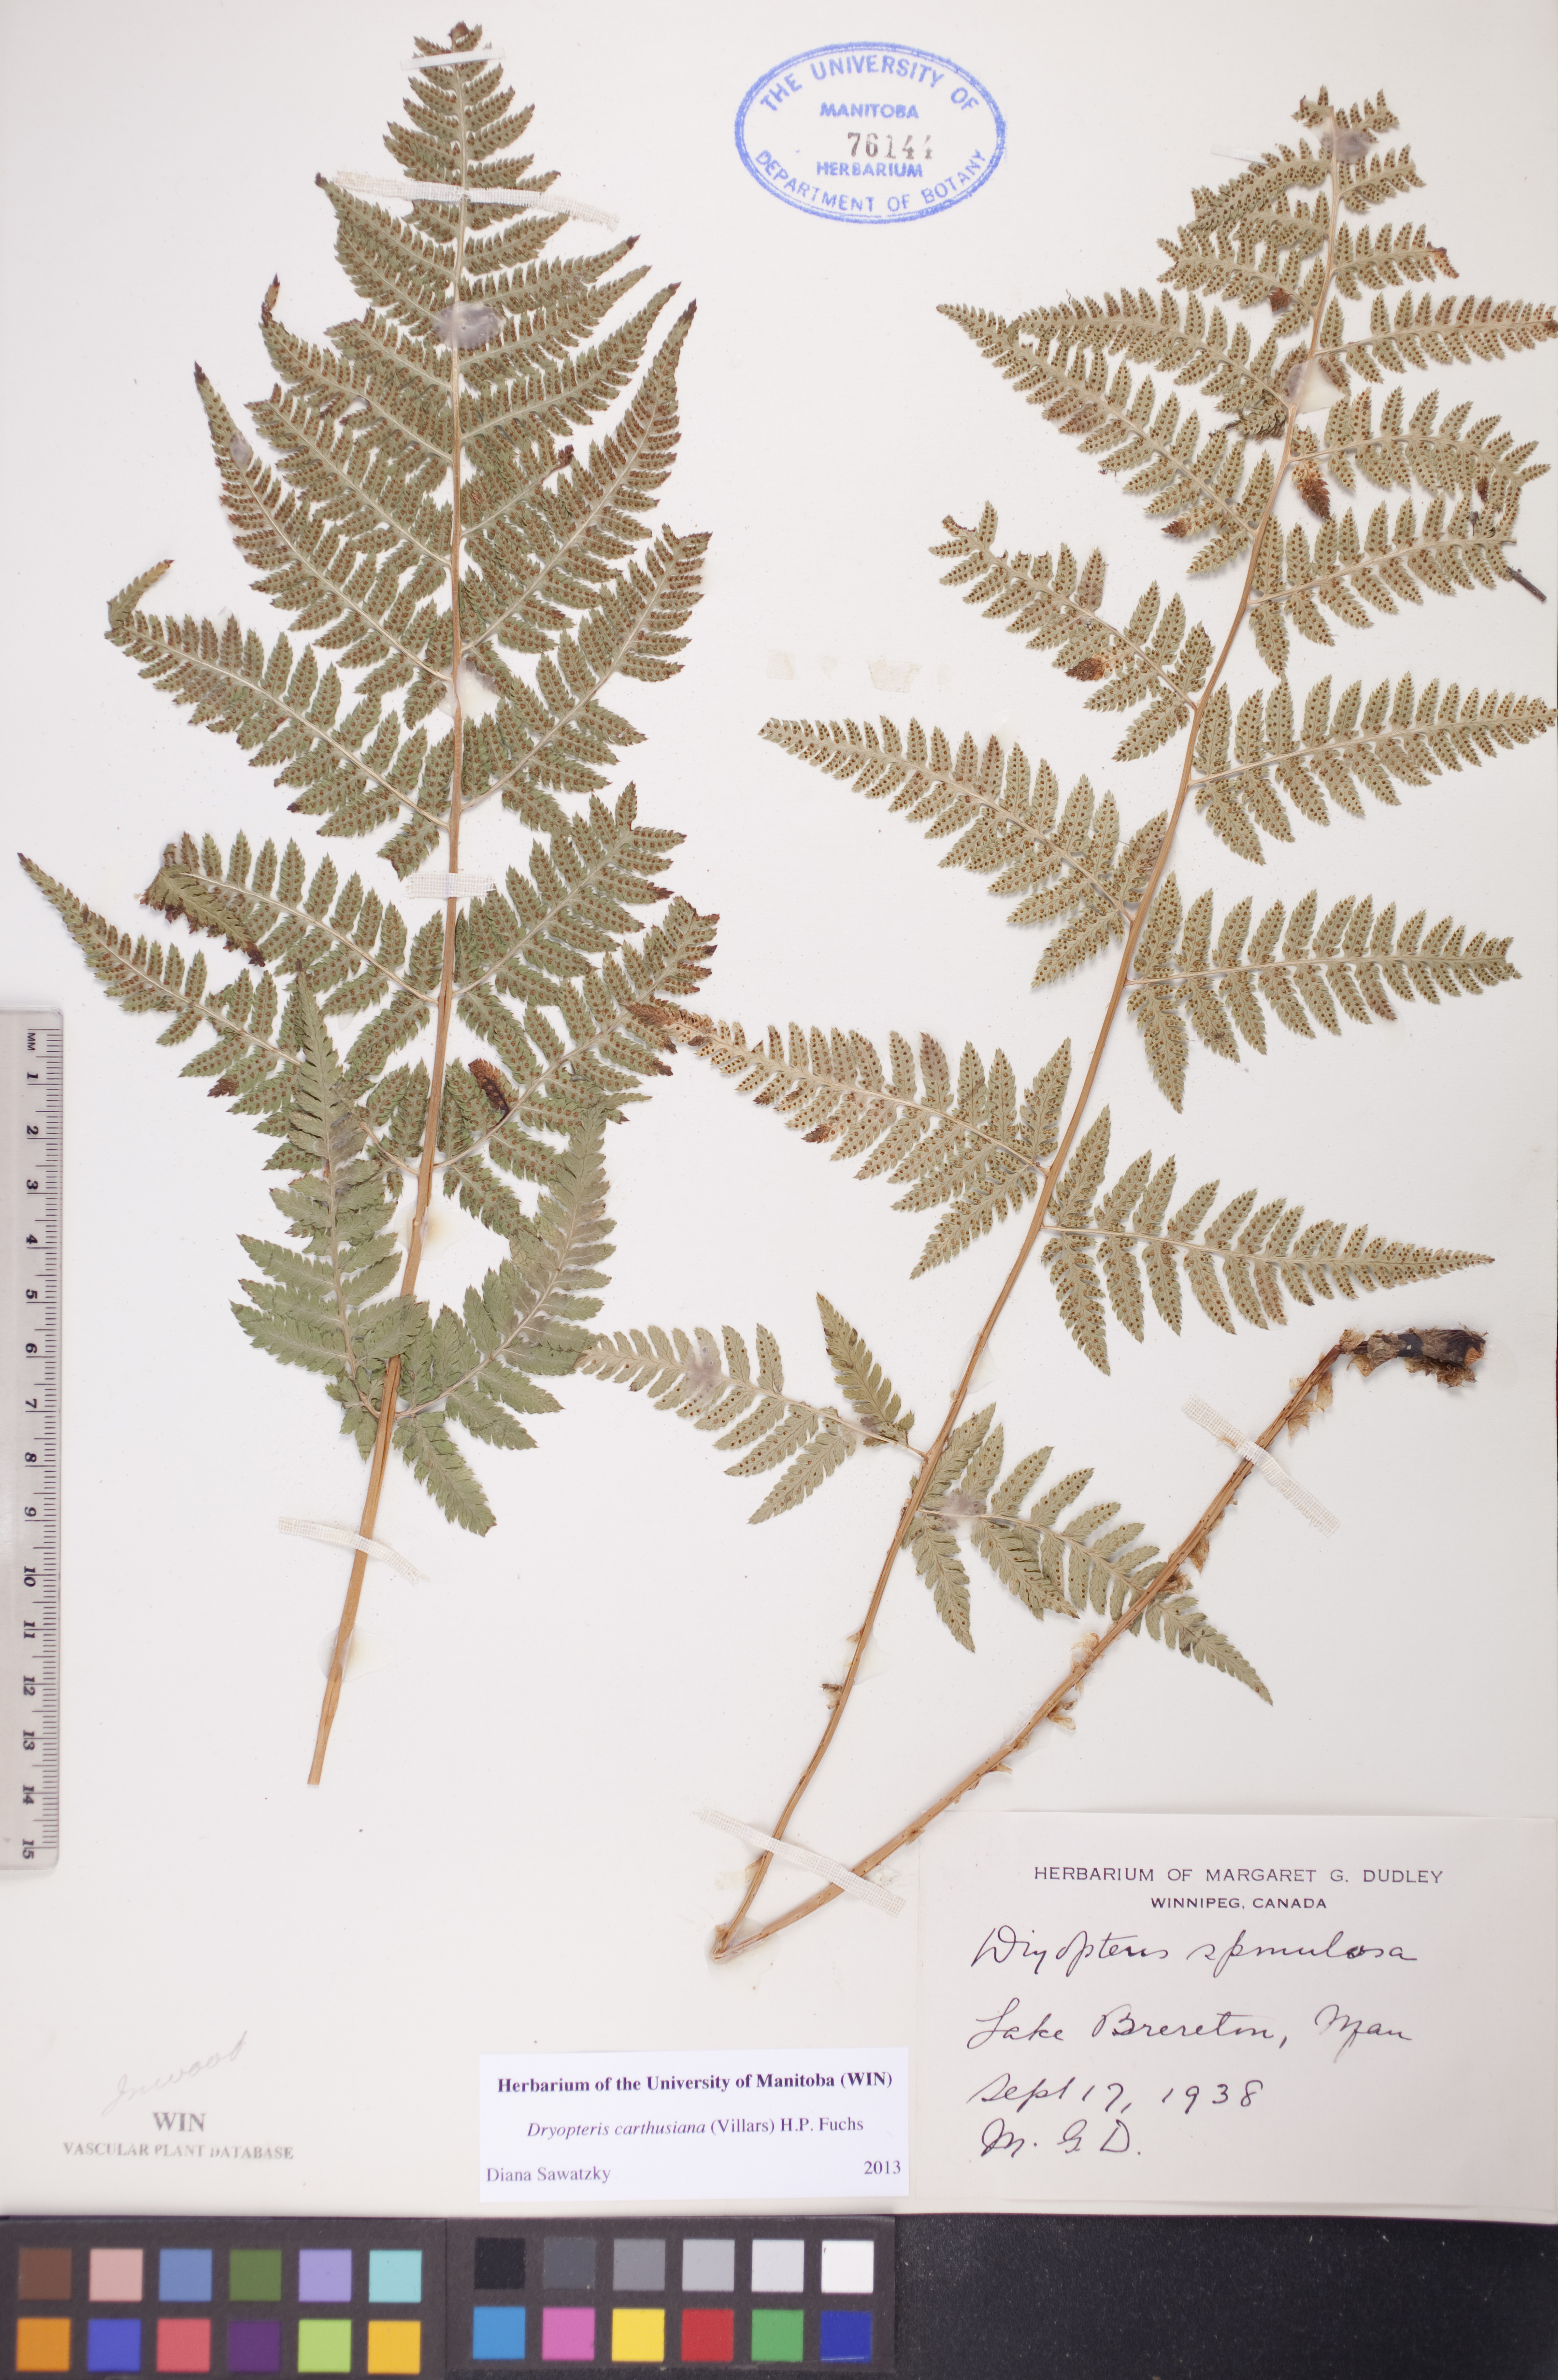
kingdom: Plantae
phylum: Tracheophyta
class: Polypodiopsida
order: Polypodiales
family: Dryopteridaceae
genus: Dryopteris
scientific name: Dryopteris carthusiana
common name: Narrow buckler-fern
